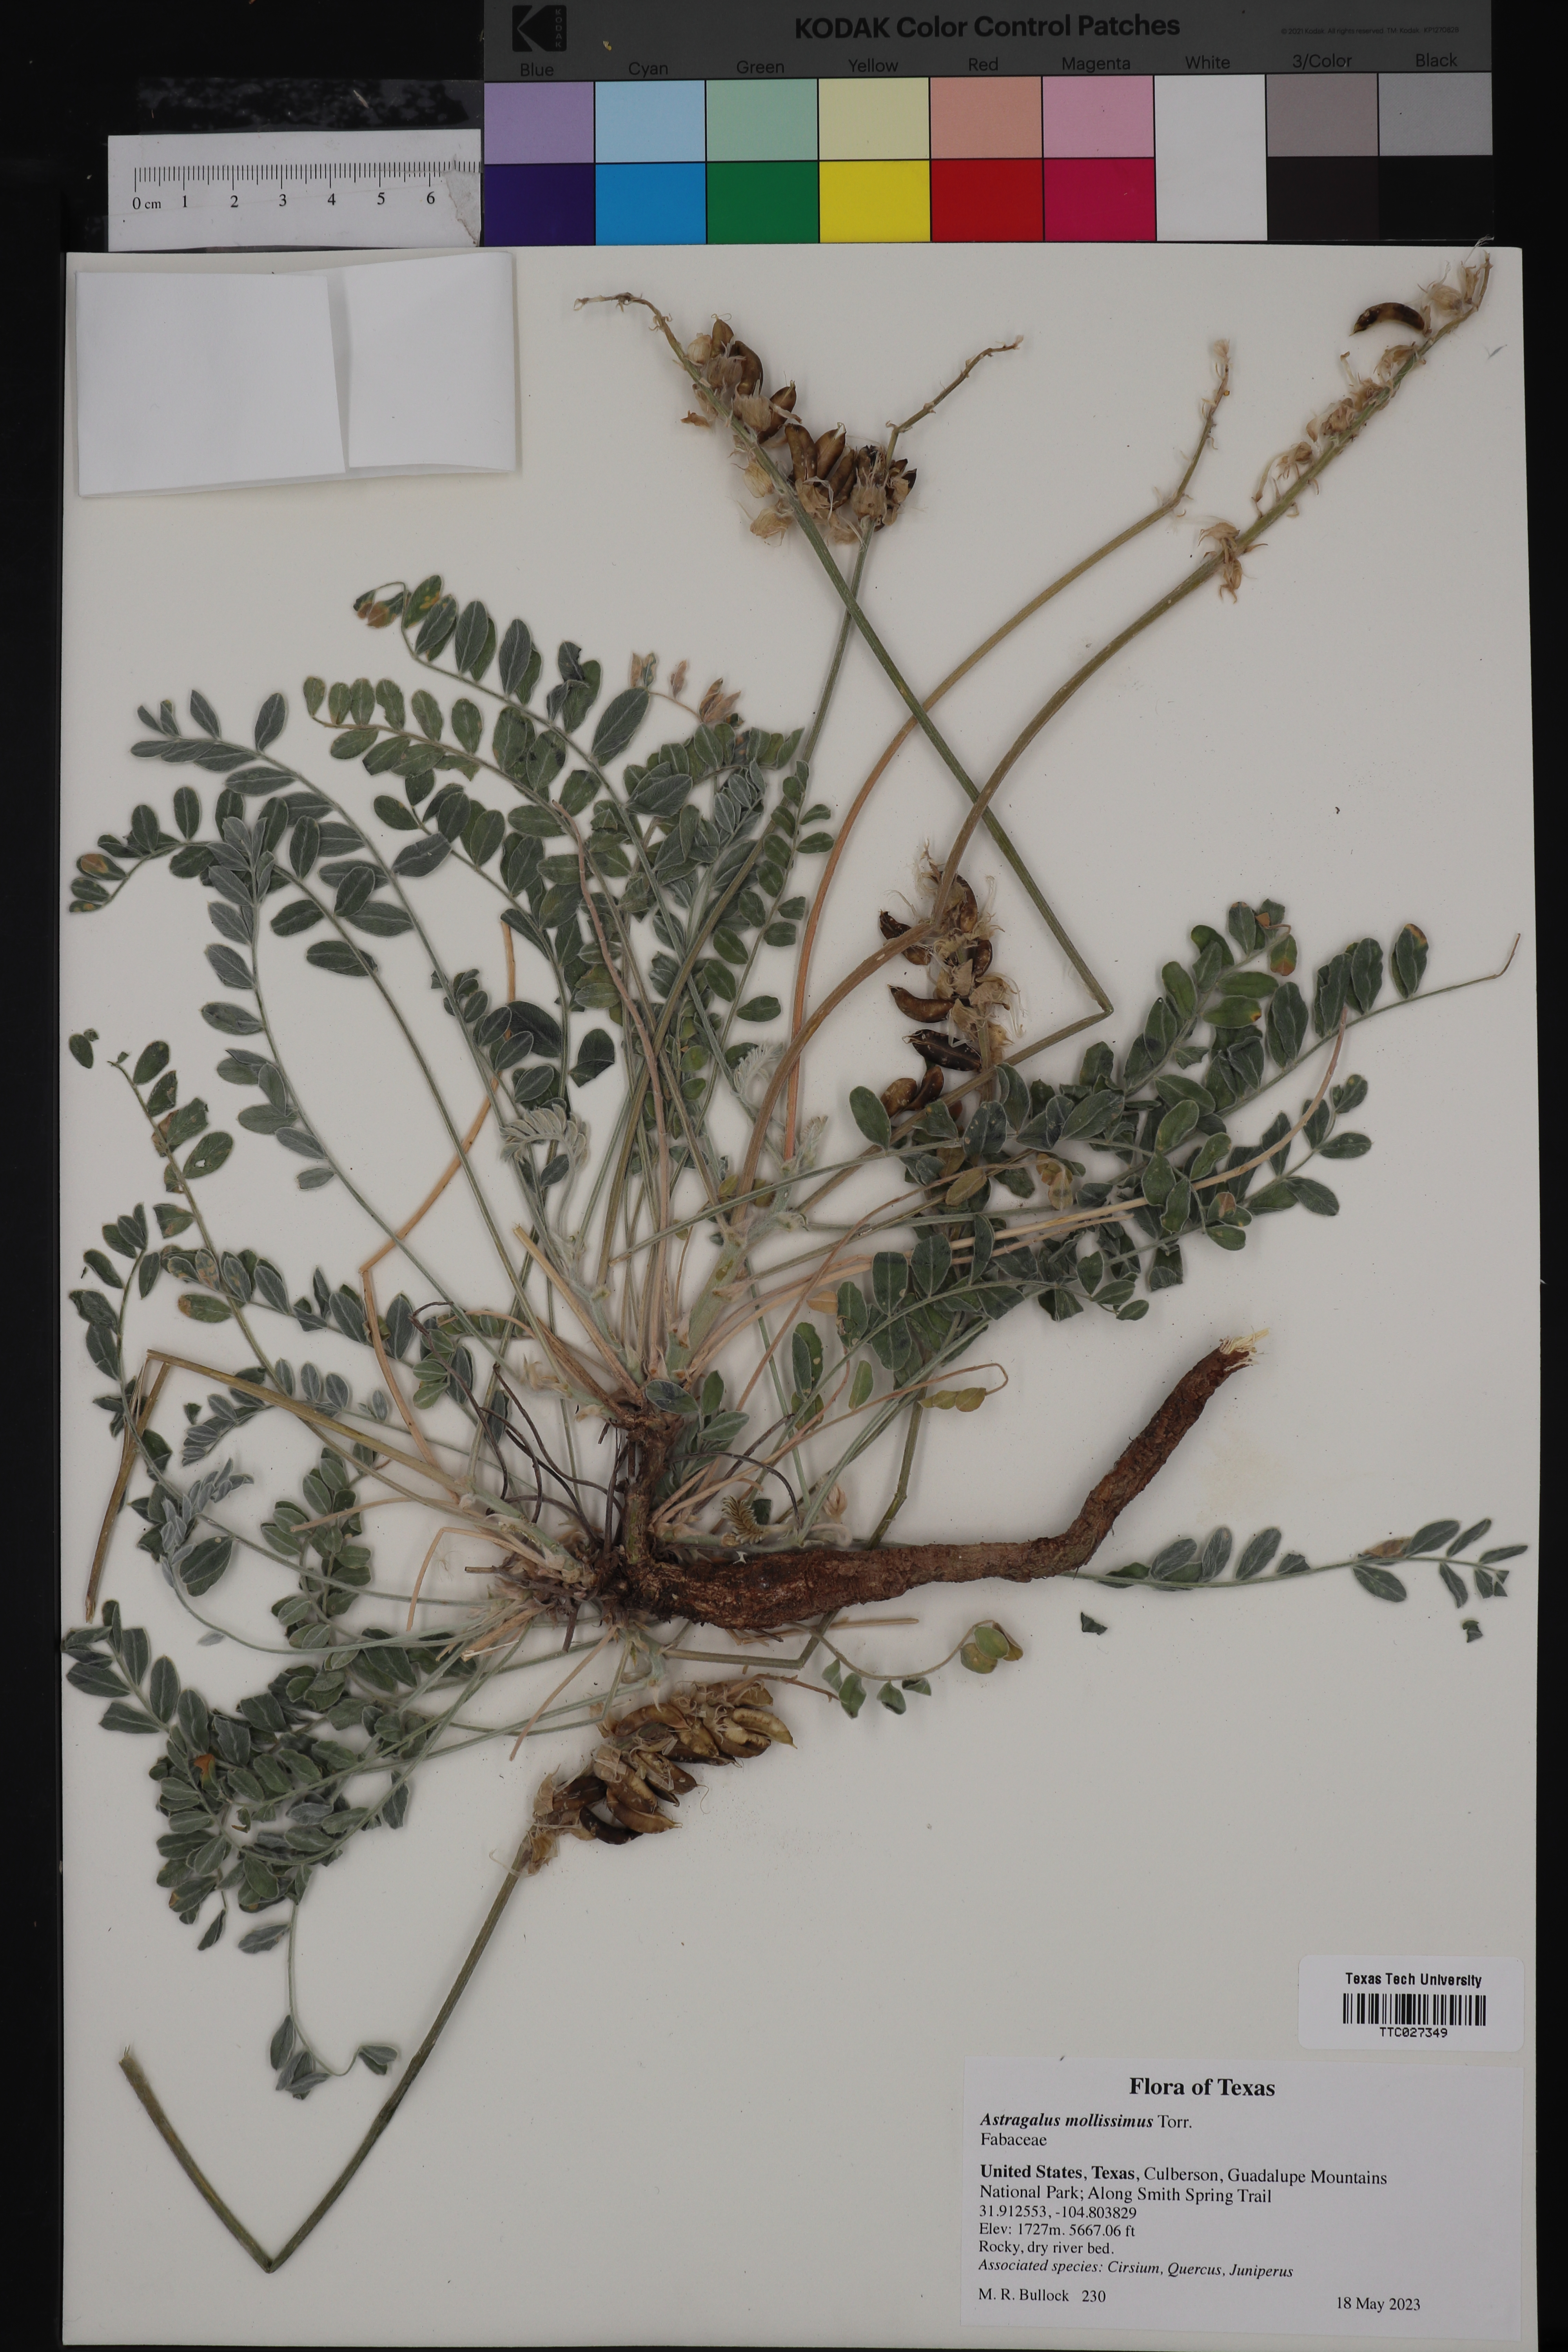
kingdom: Plantae
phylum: Tracheophyta
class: Magnoliopsida
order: Fabales
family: Fabaceae
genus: Astragalus
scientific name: Astragalus mollissimus
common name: Woolly locoweed
